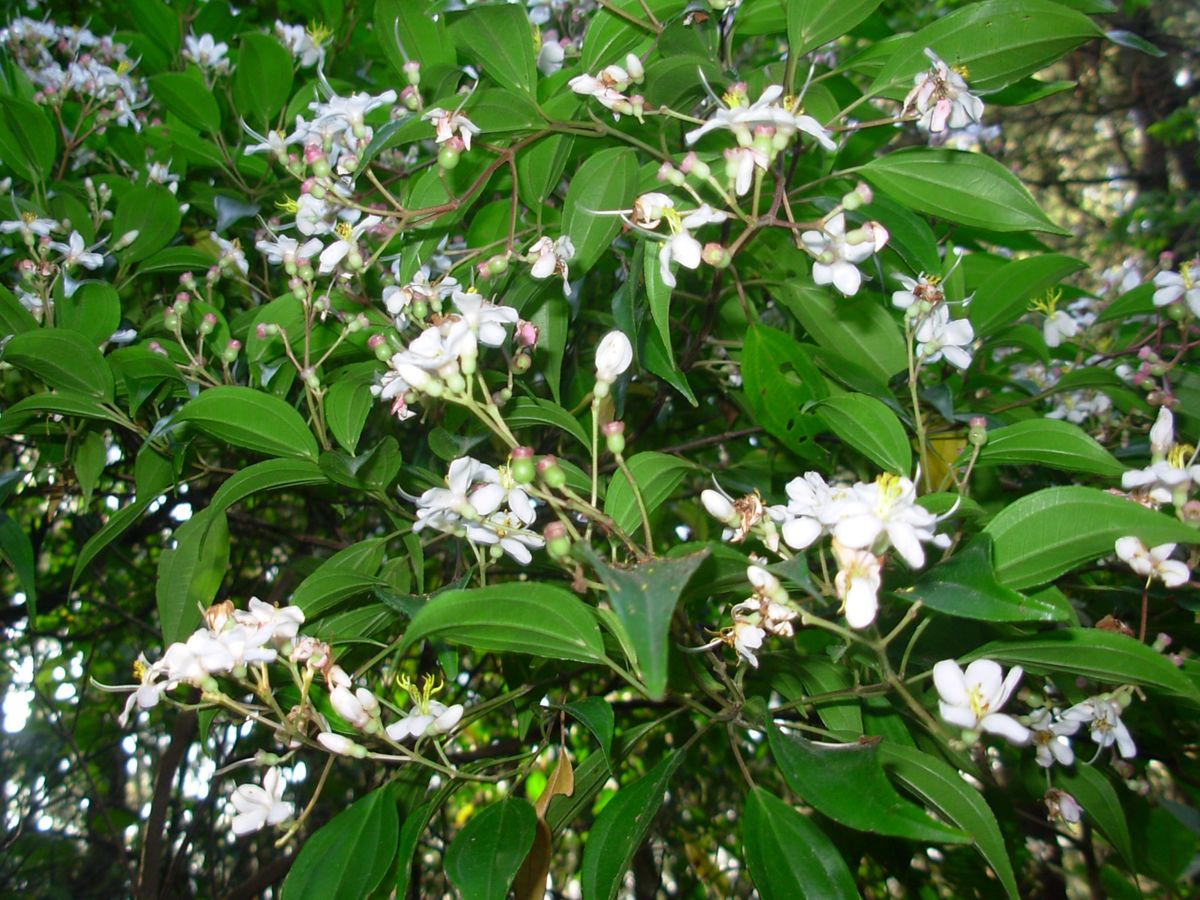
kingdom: Plantae
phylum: Tracheophyta
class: Magnoliopsida
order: Myrtales
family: Melastomataceae
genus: Miconia
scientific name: Miconia mexicana
